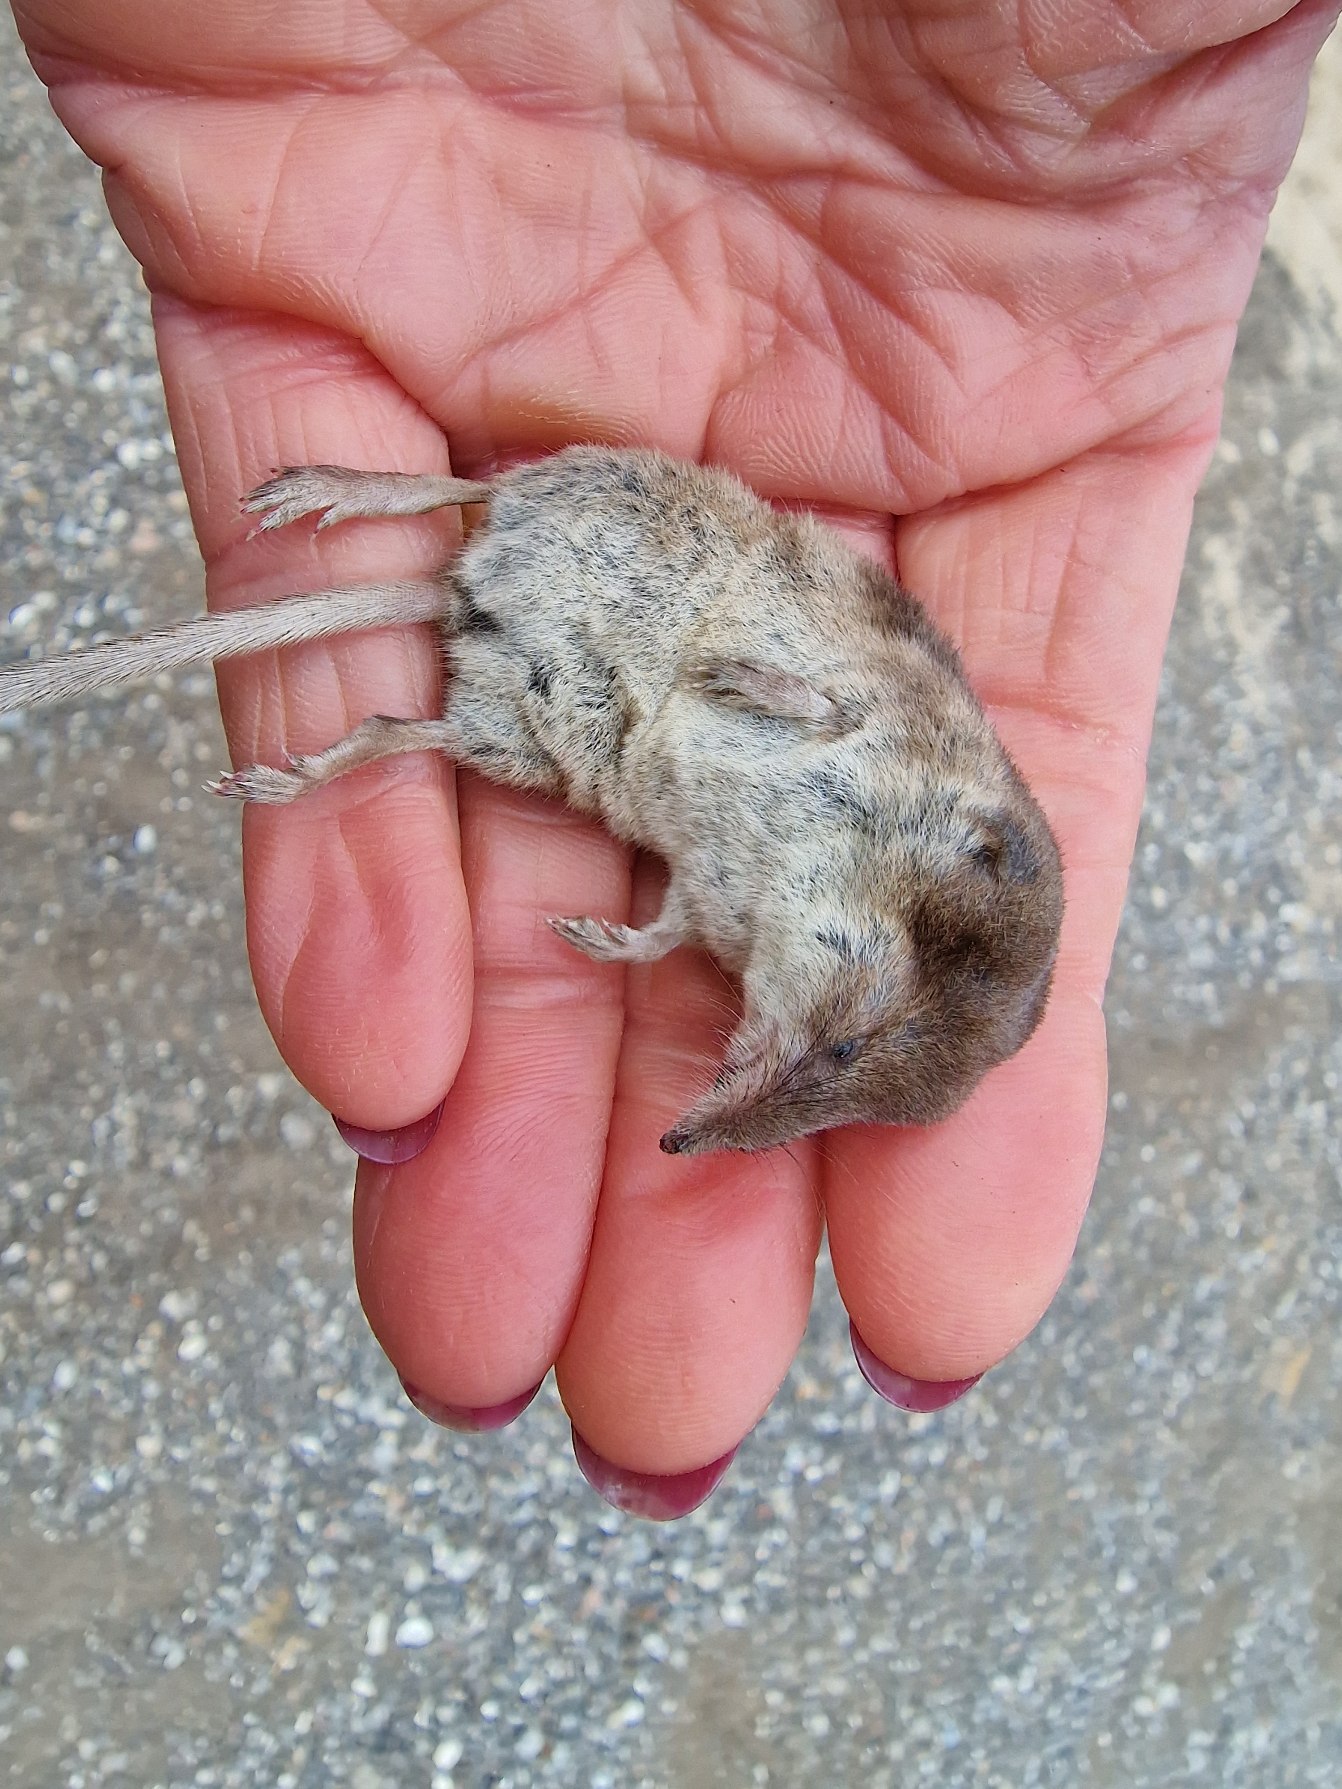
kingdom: Animalia
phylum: Chordata
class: Mammalia
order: Soricomorpha
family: Soricidae
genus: Sorex
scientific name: Sorex araneus
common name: Almindelig spidsmus
